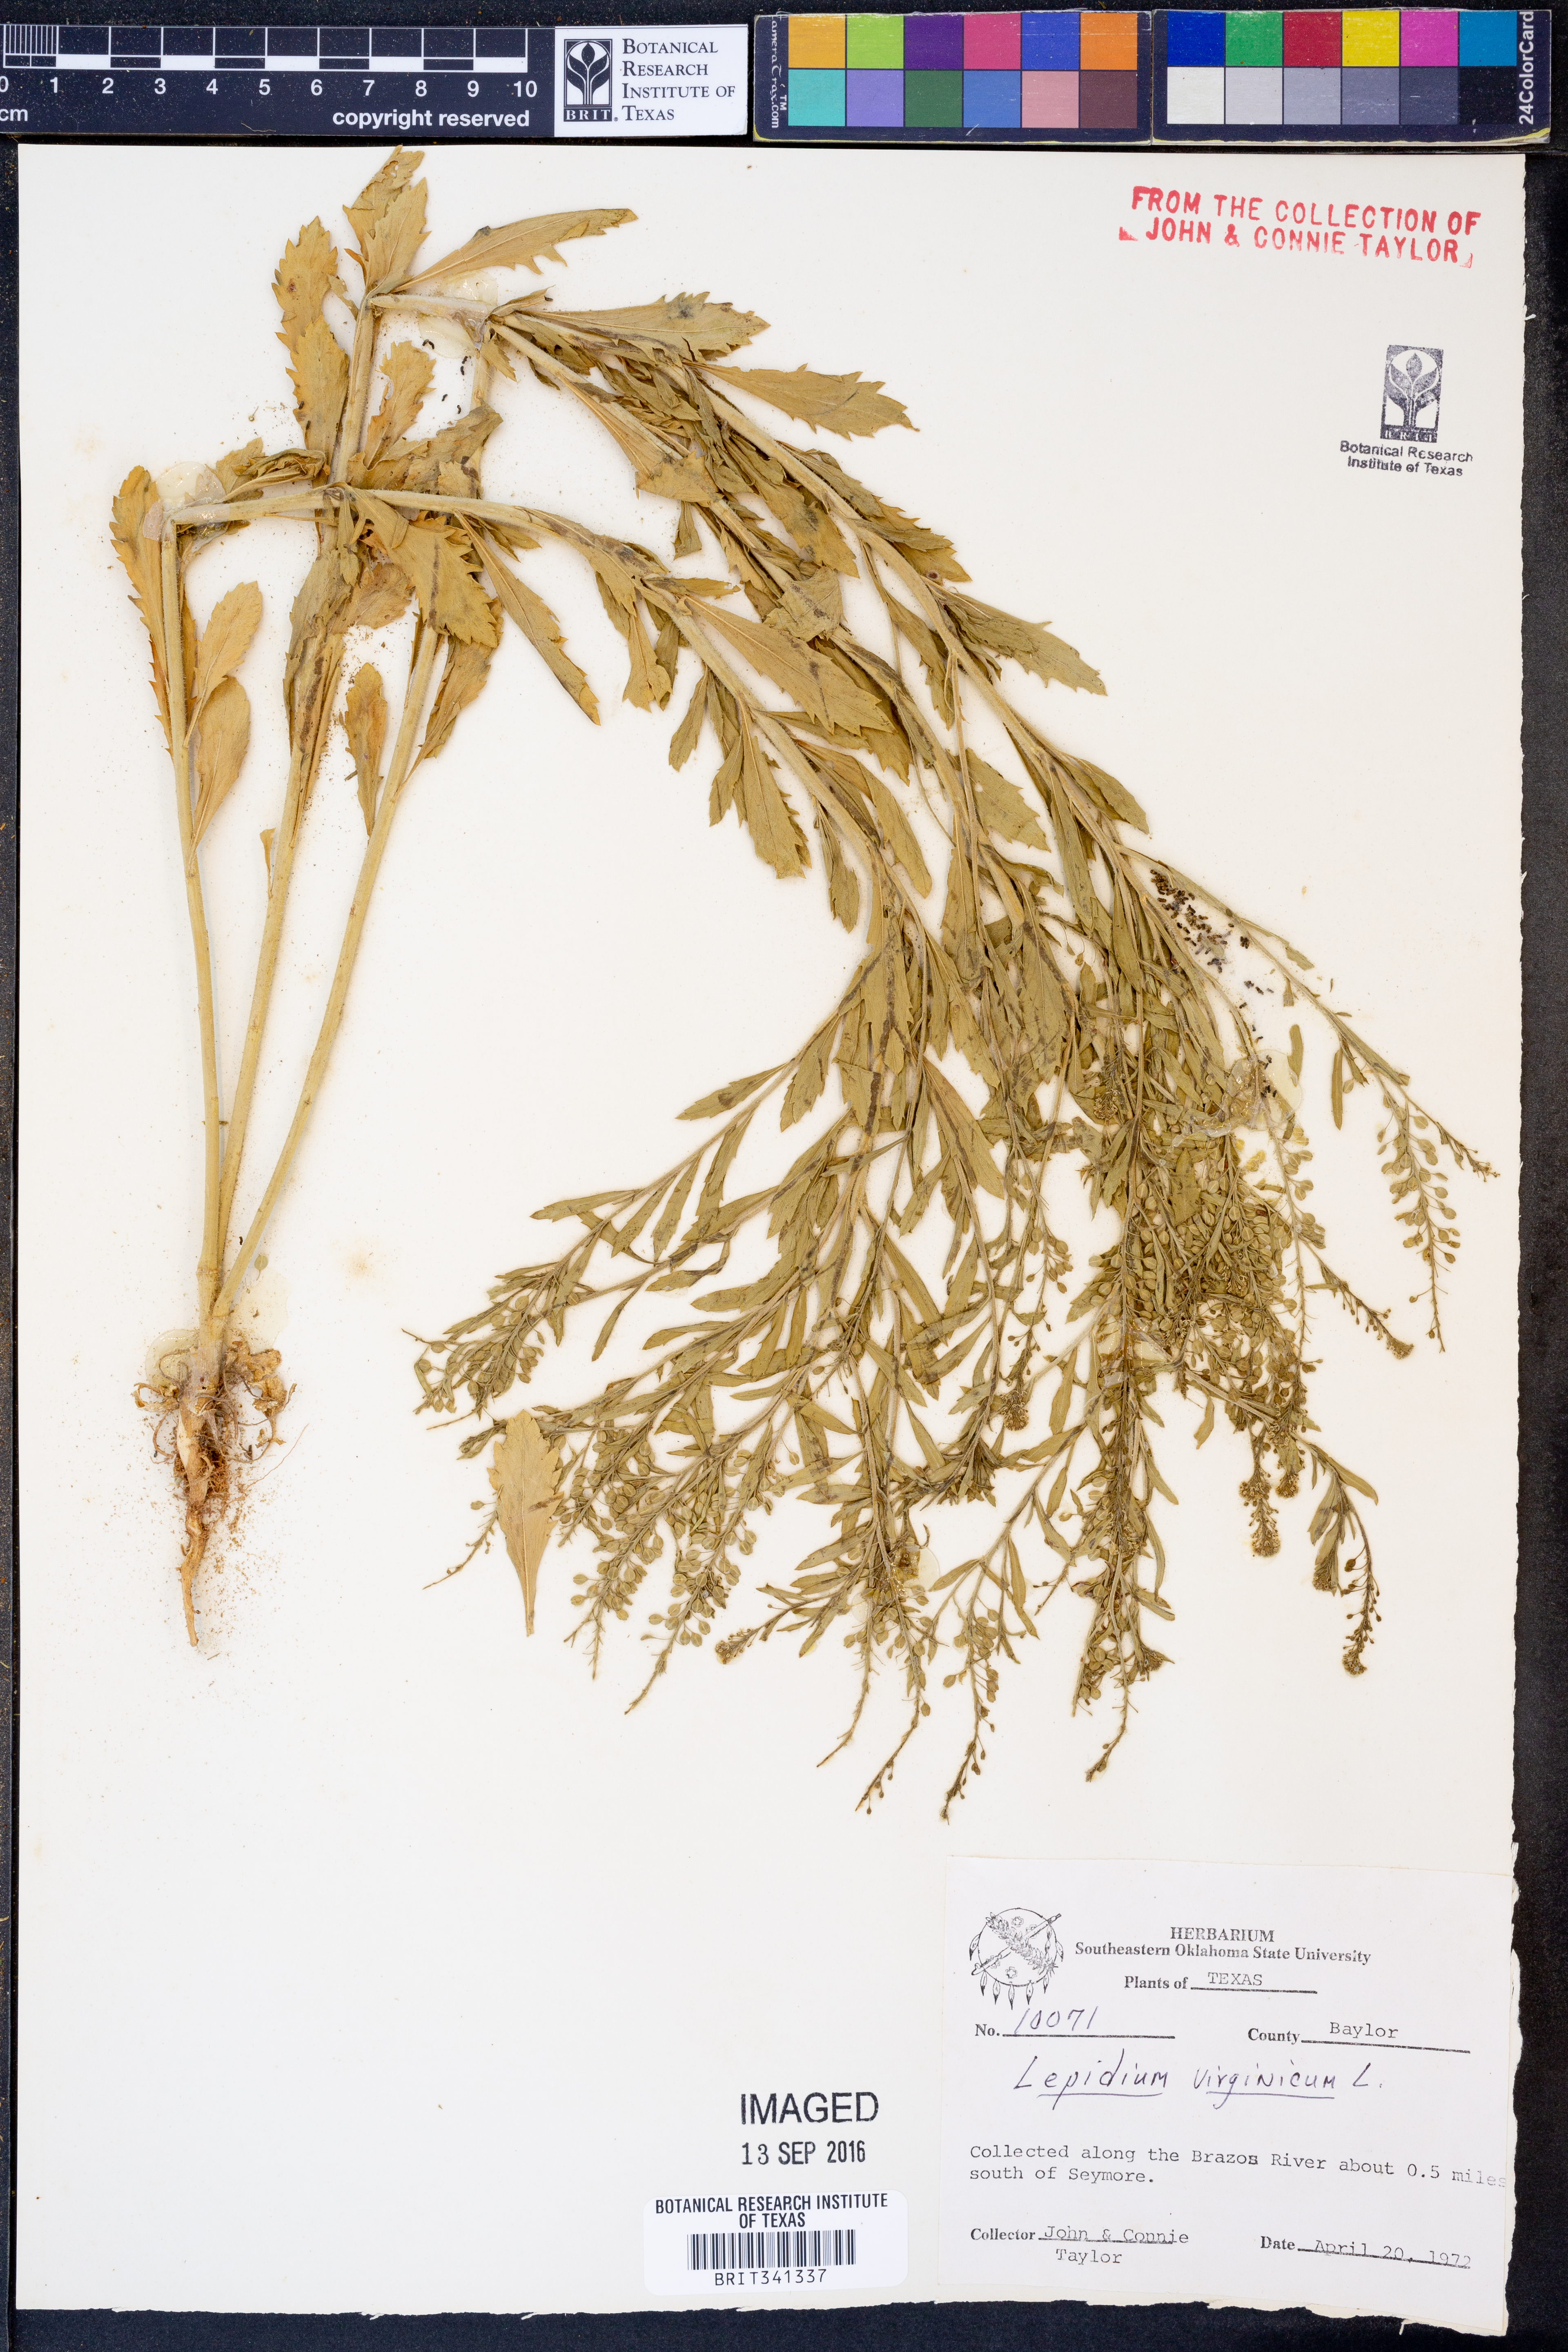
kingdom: Plantae
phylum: Tracheophyta
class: Magnoliopsida
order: Brassicales
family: Brassicaceae
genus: Lepidium
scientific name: Lepidium virginicum
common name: Least pepperwort
